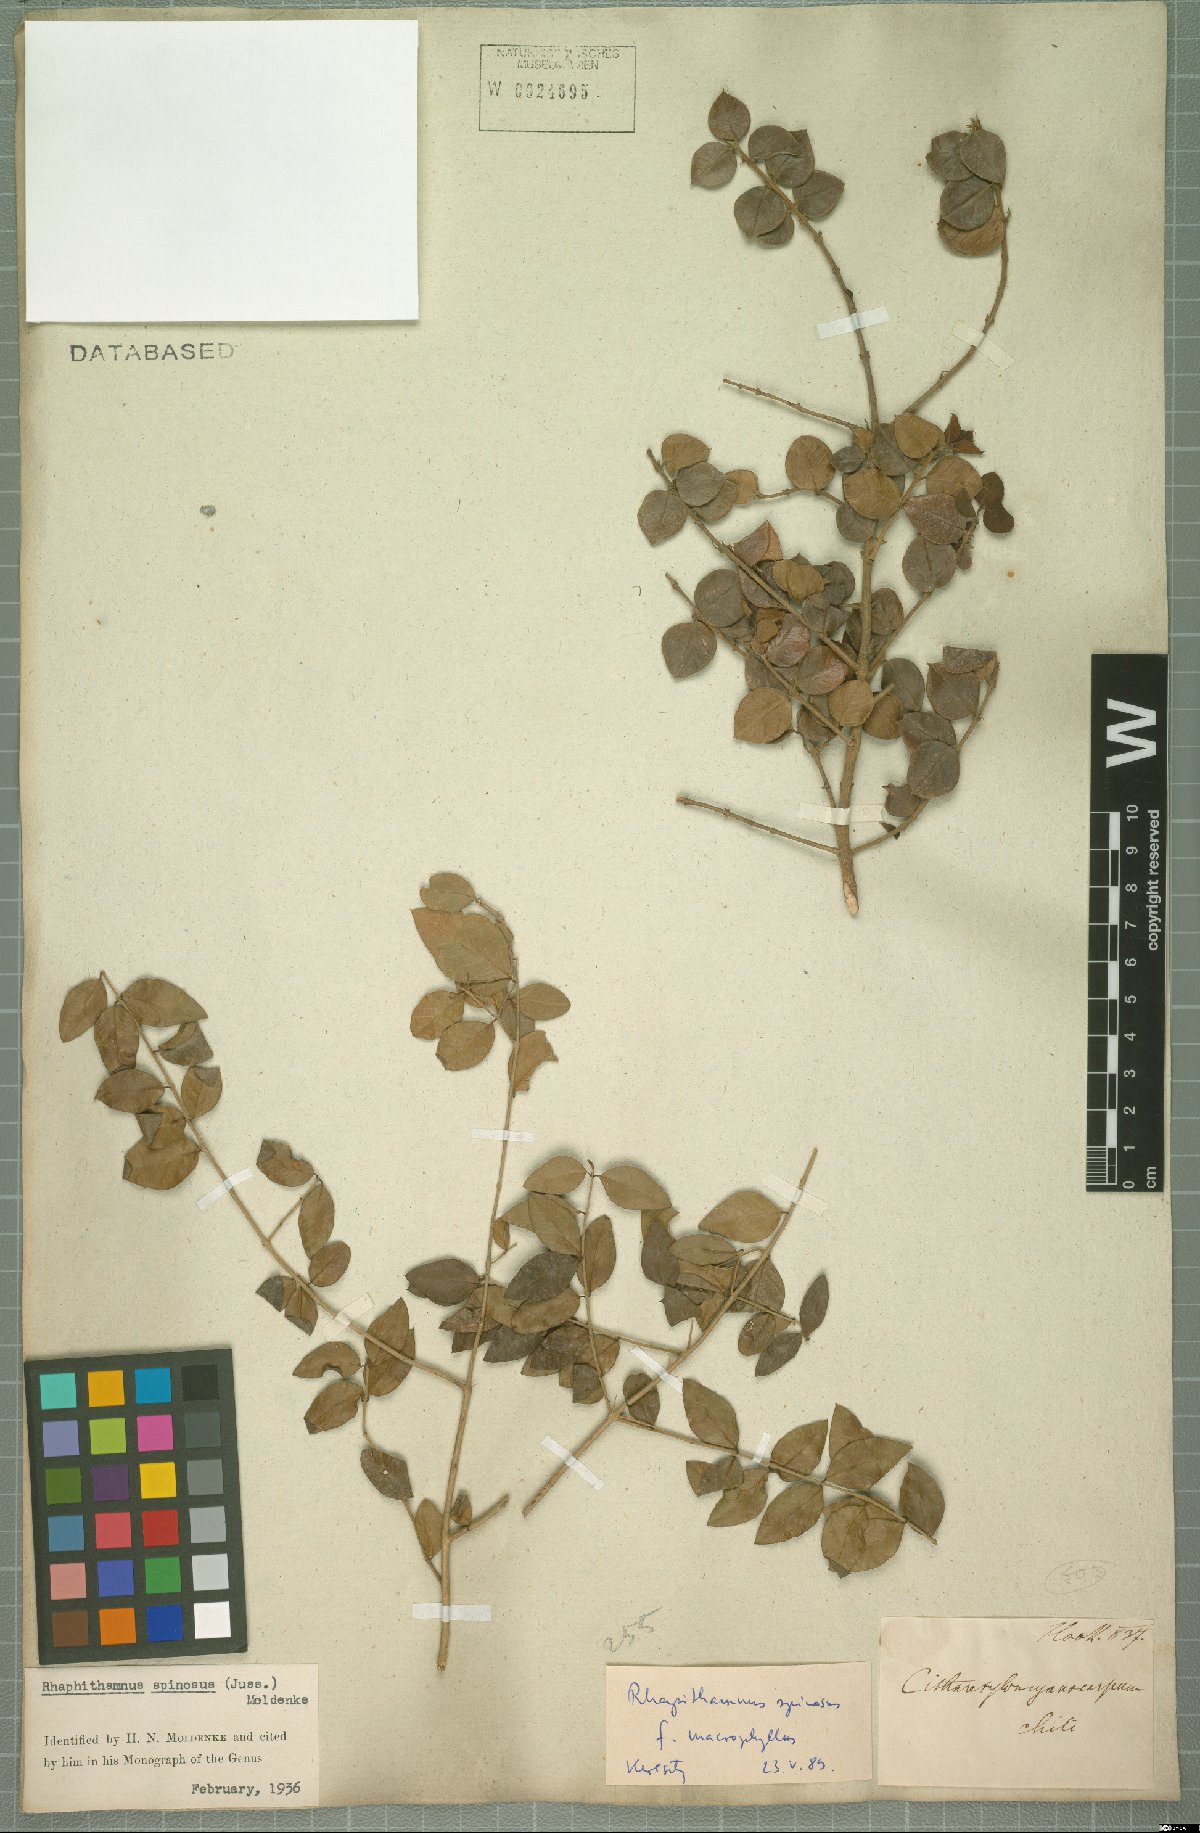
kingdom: Plantae
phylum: Tracheophyta
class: Magnoliopsida
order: Lamiales
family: Verbenaceae
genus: Rhaphithamnus
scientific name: Rhaphithamnus spinosus
